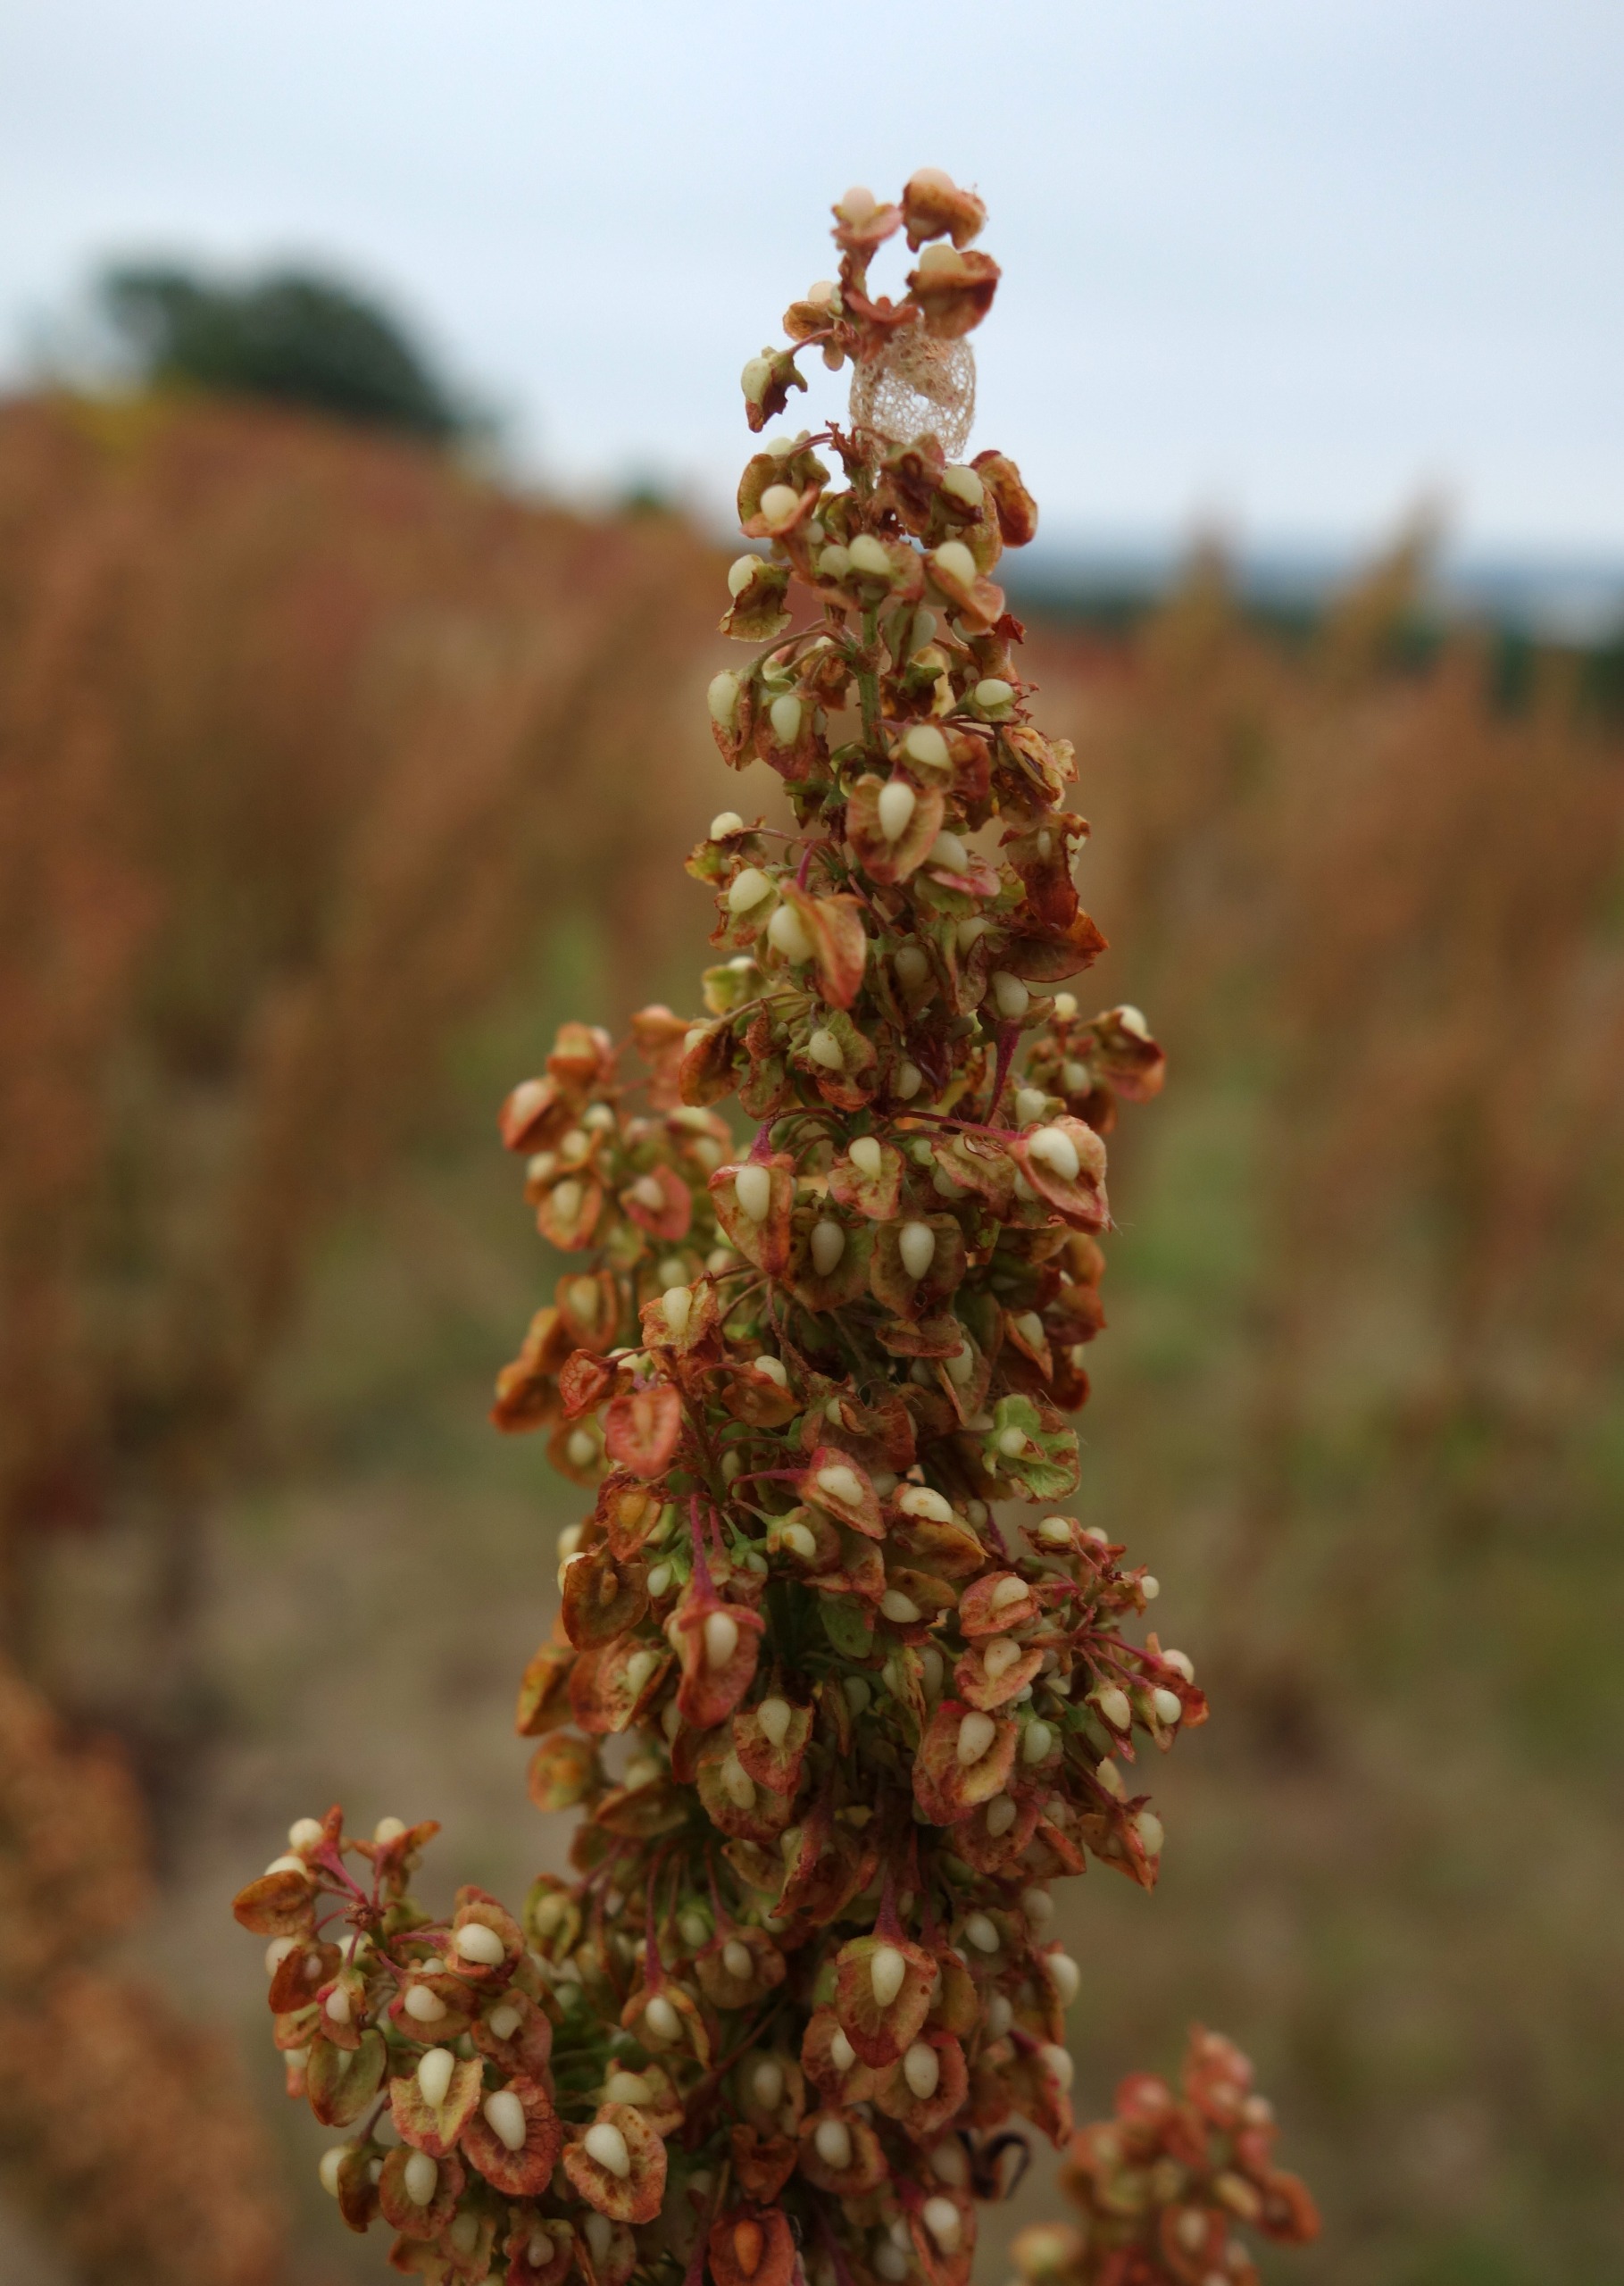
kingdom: Plantae
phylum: Tracheophyta
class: Magnoliopsida
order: Caryophyllales
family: Polygonaceae
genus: Rumex
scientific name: Rumex crispus
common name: Kruset skræppe
